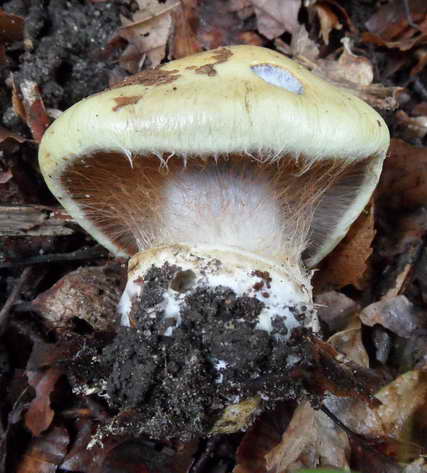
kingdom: Fungi
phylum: Basidiomycota
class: Agaricomycetes
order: Agaricales
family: Cortinariaceae
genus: Cortinarius
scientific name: Cortinarius anserinus
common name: bøge-slørhat
